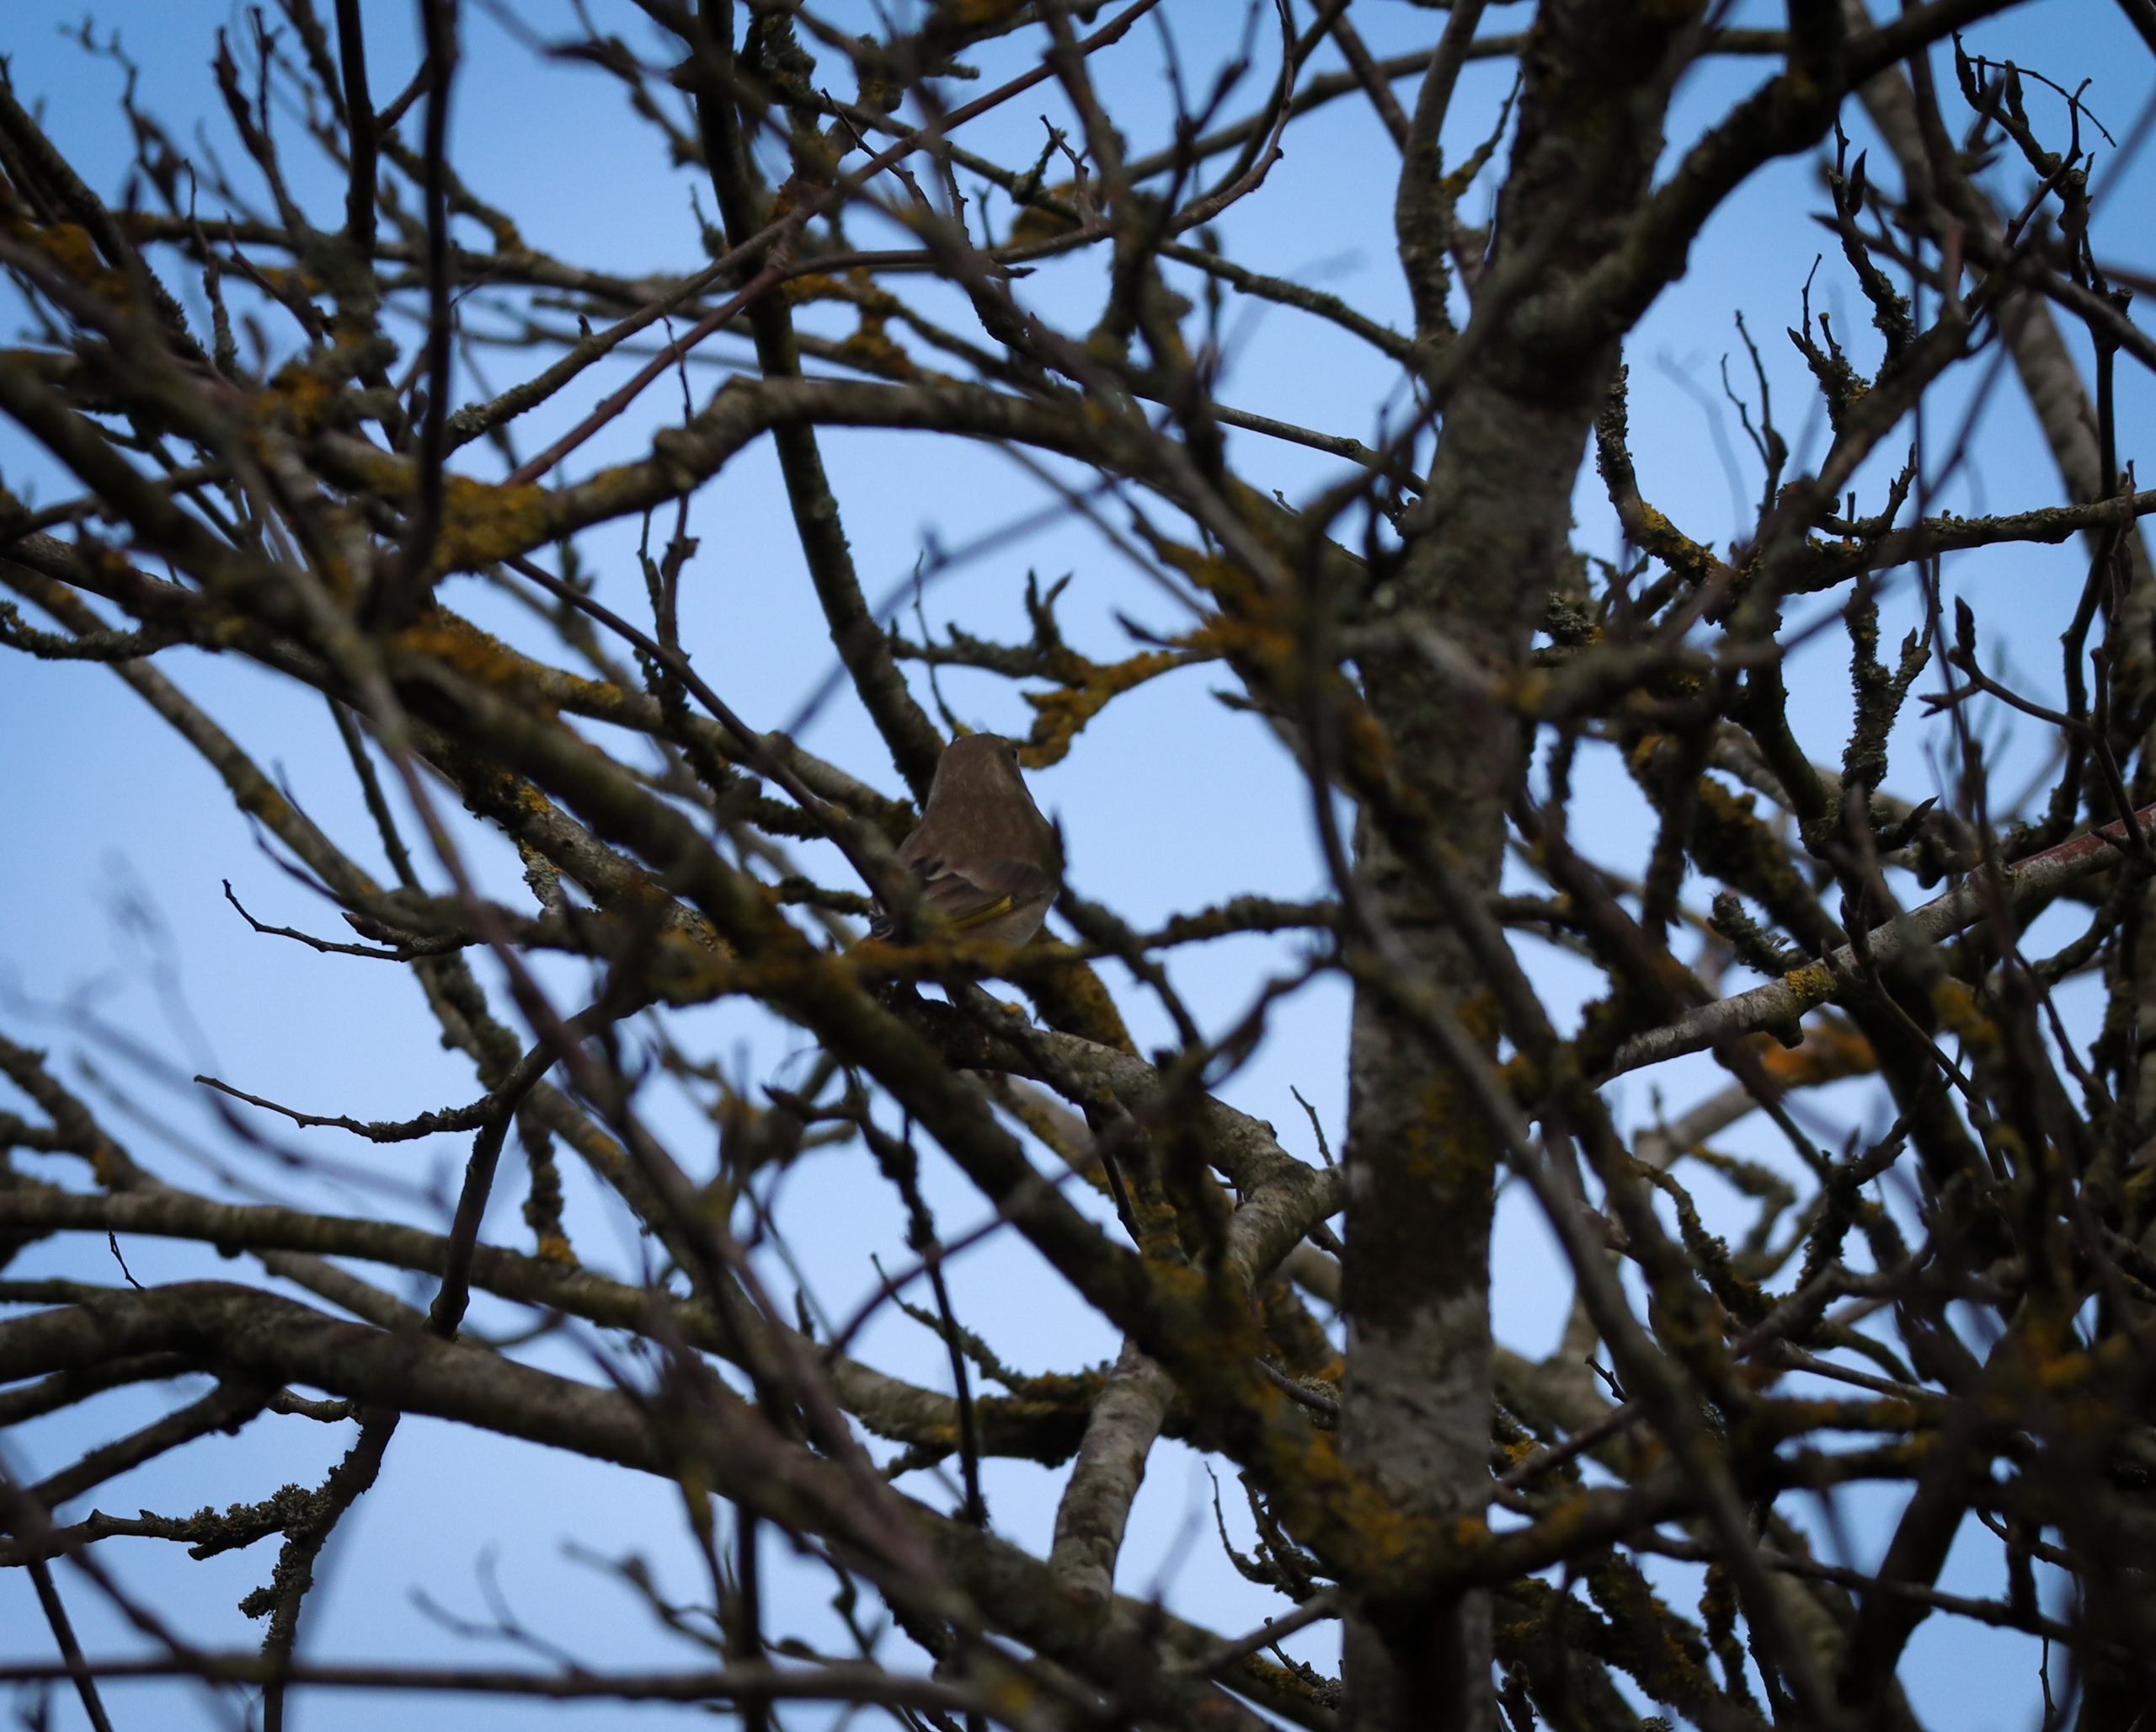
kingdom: Plantae
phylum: Tracheophyta
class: Liliopsida
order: Poales
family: Poaceae
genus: Chloris
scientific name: Chloris chloris
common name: Grønirisk
